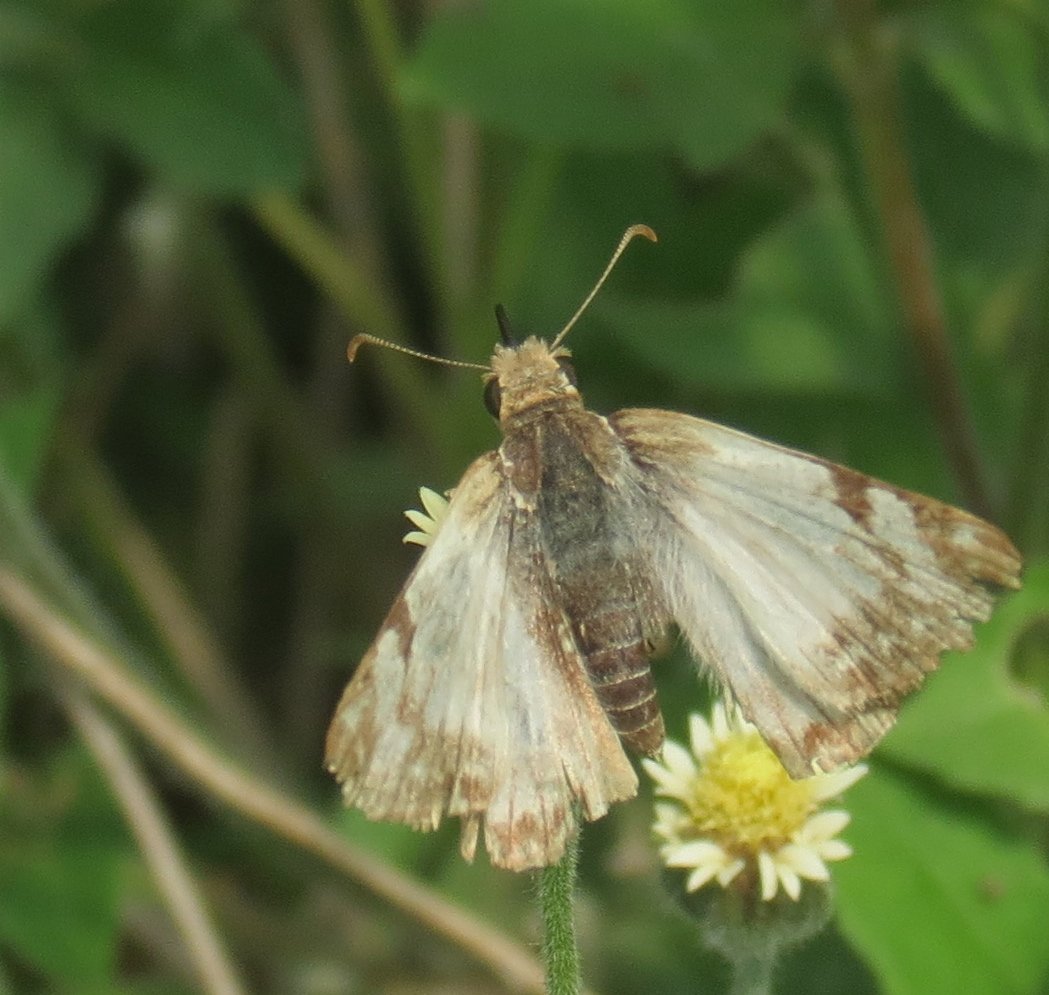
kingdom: Animalia
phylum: Arthropoda
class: Insecta
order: Lepidoptera
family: Hesperiidae
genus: Heliopetes
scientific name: Heliopetes laviana
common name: Laviana White-Skipper
